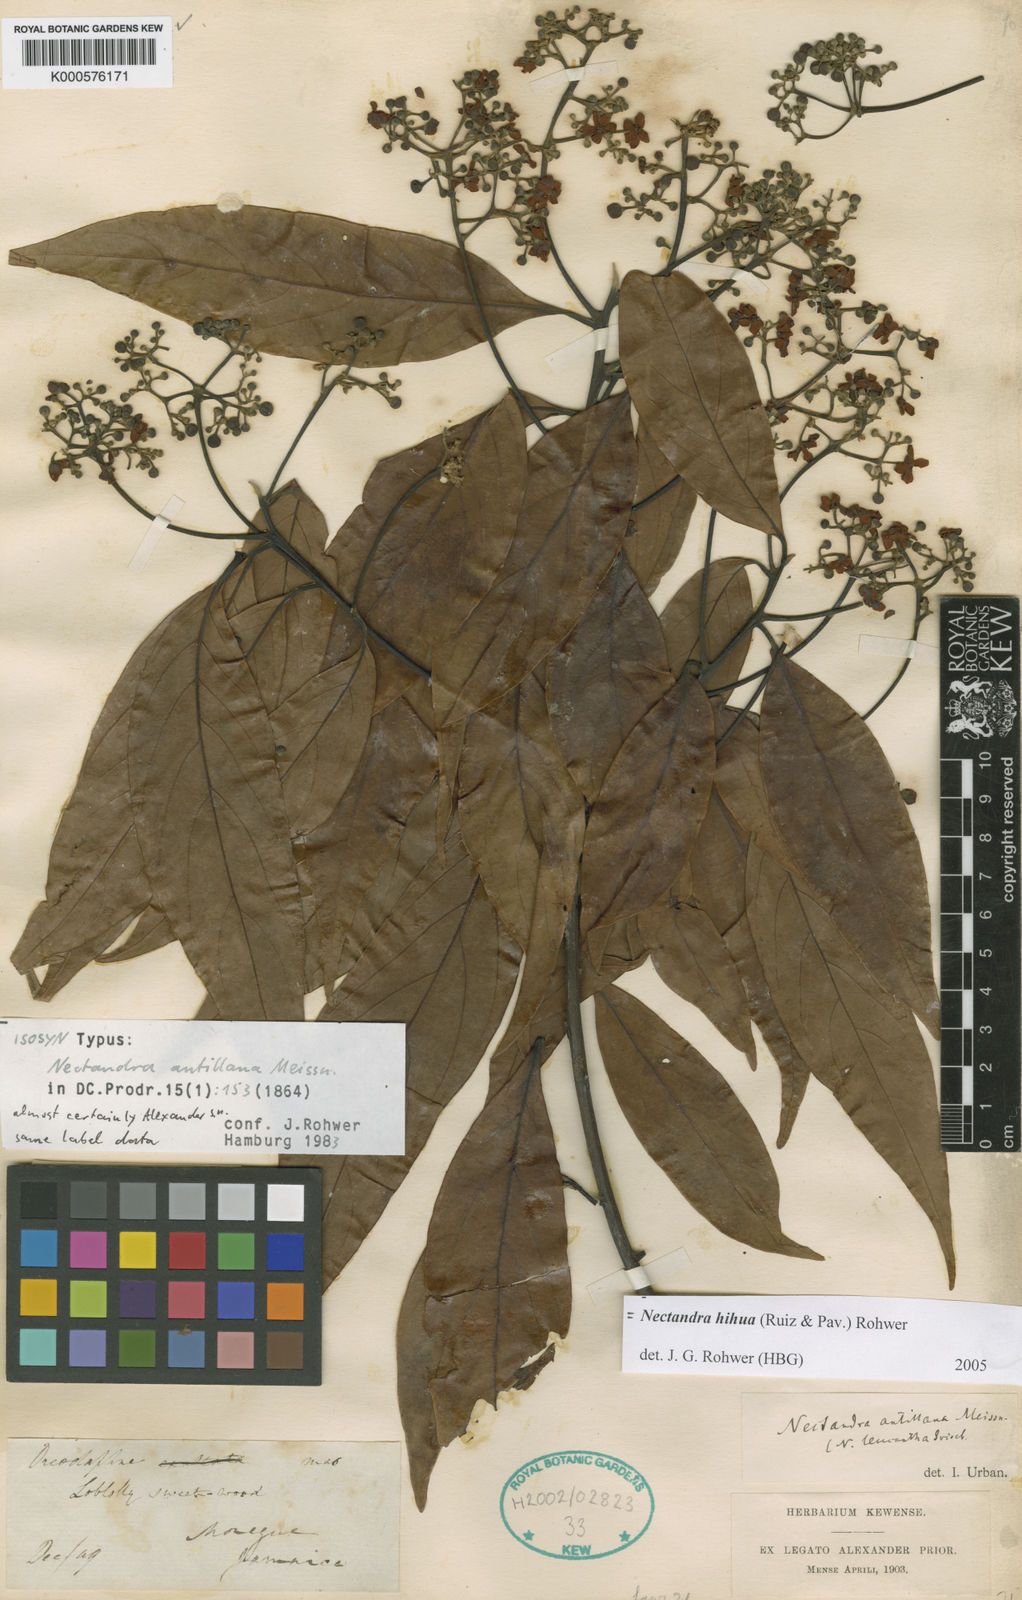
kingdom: Plantae
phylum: Tracheophyta
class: Magnoliopsida
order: Laurales
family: Lauraceae
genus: Nectandra
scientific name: Nectandra hihua
